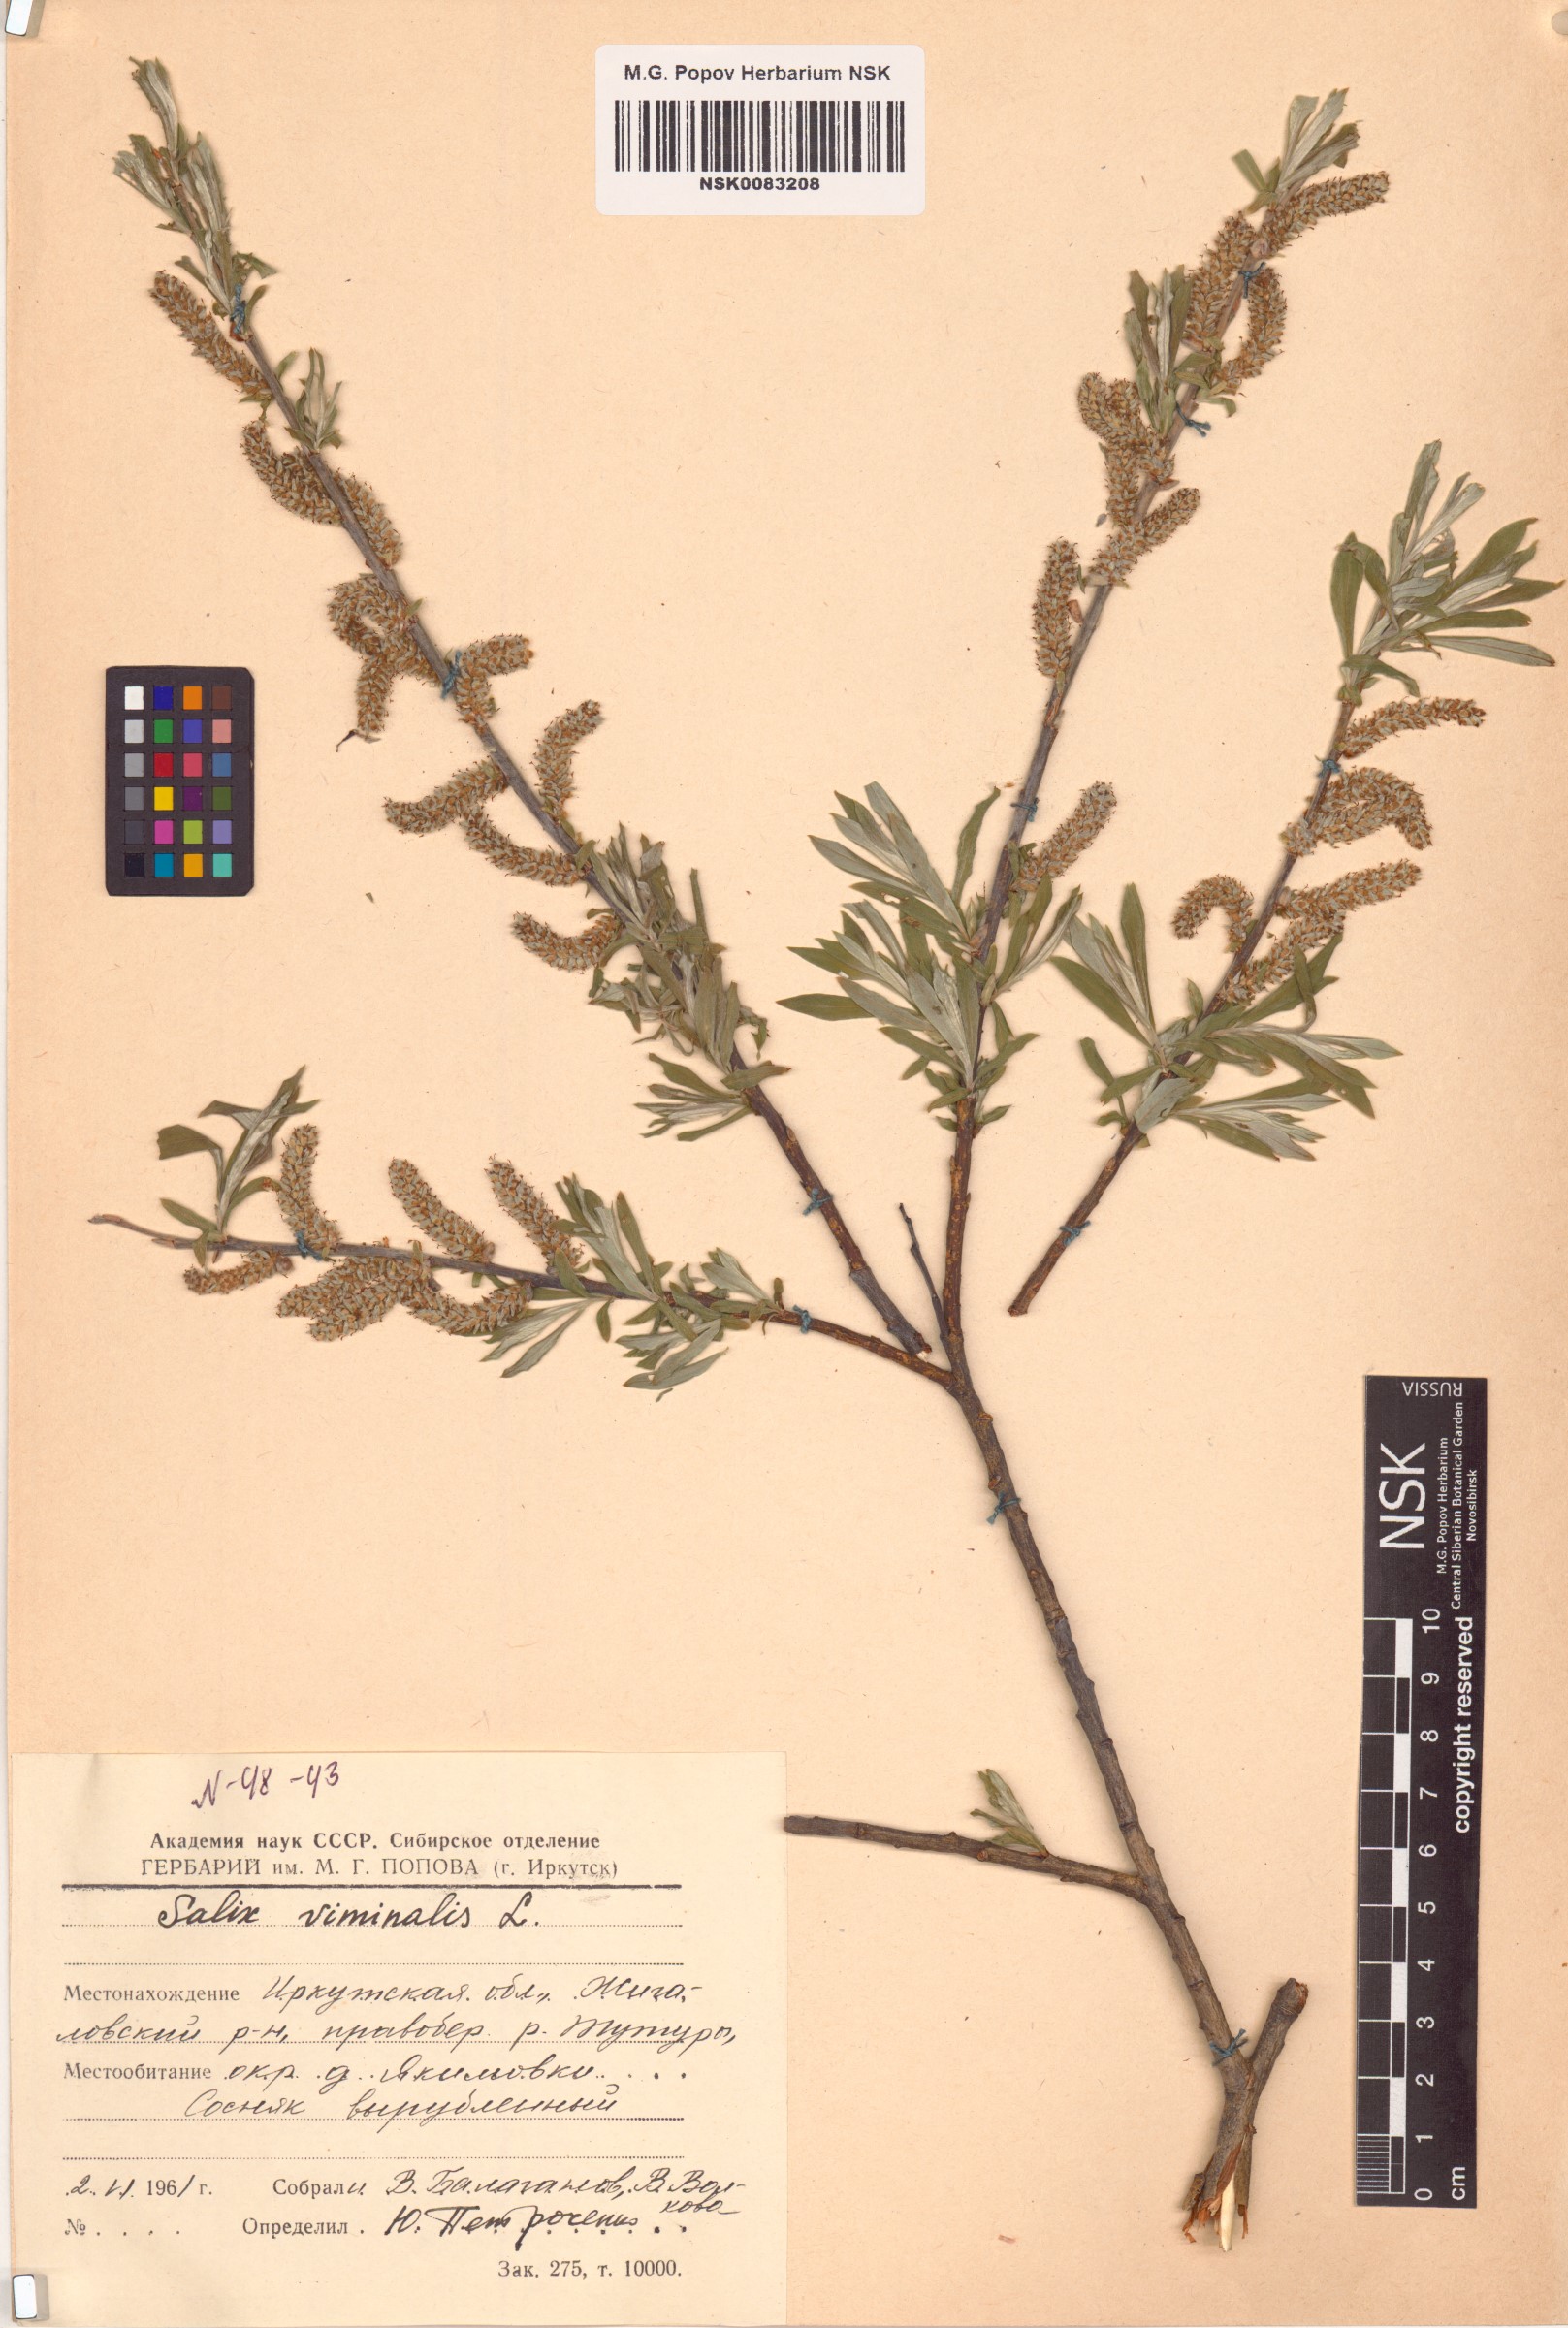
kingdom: Plantae
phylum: Tracheophyta
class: Magnoliopsida
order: Malpighiales
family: Salicaceae
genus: Salix
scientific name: Salix viminalis
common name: Osier
